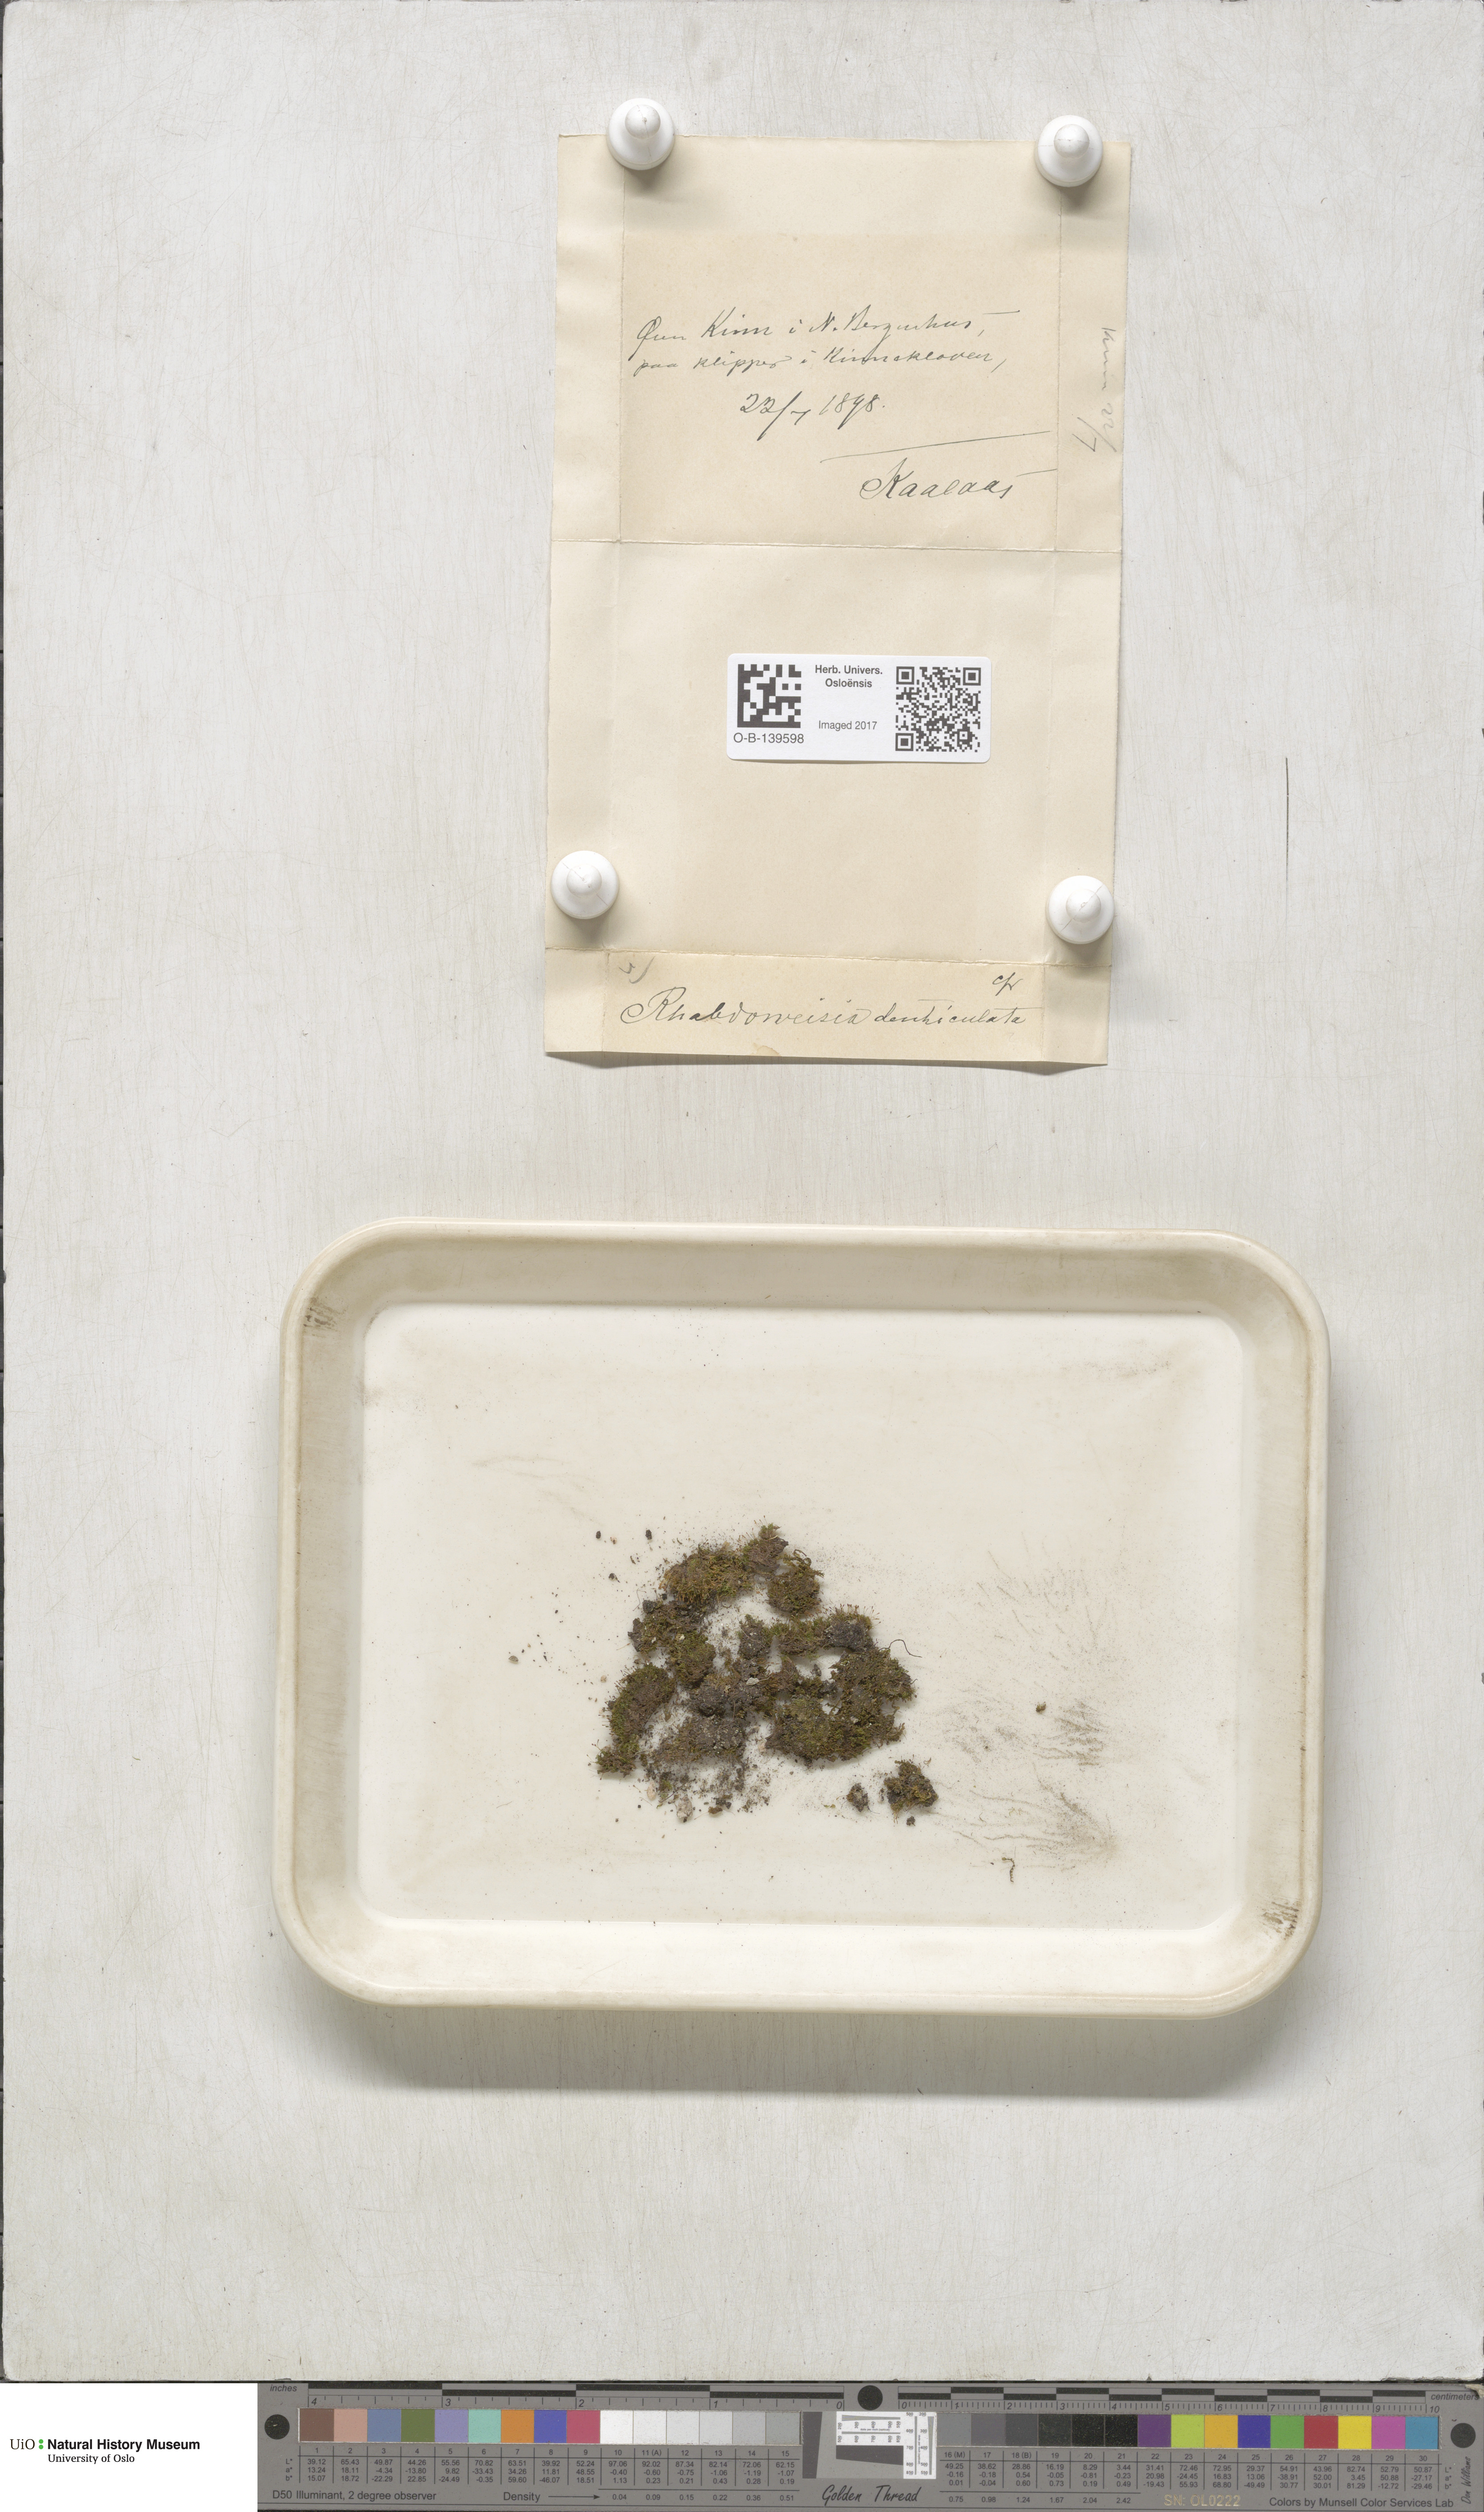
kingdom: Plantae
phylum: Bryophyta
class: Bryopsida
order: Dicranales
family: Rhabdoweisiaceae
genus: Rhabdoweisia
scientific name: Rhabdoweisia crispata
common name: Fine-toothed streak moss
